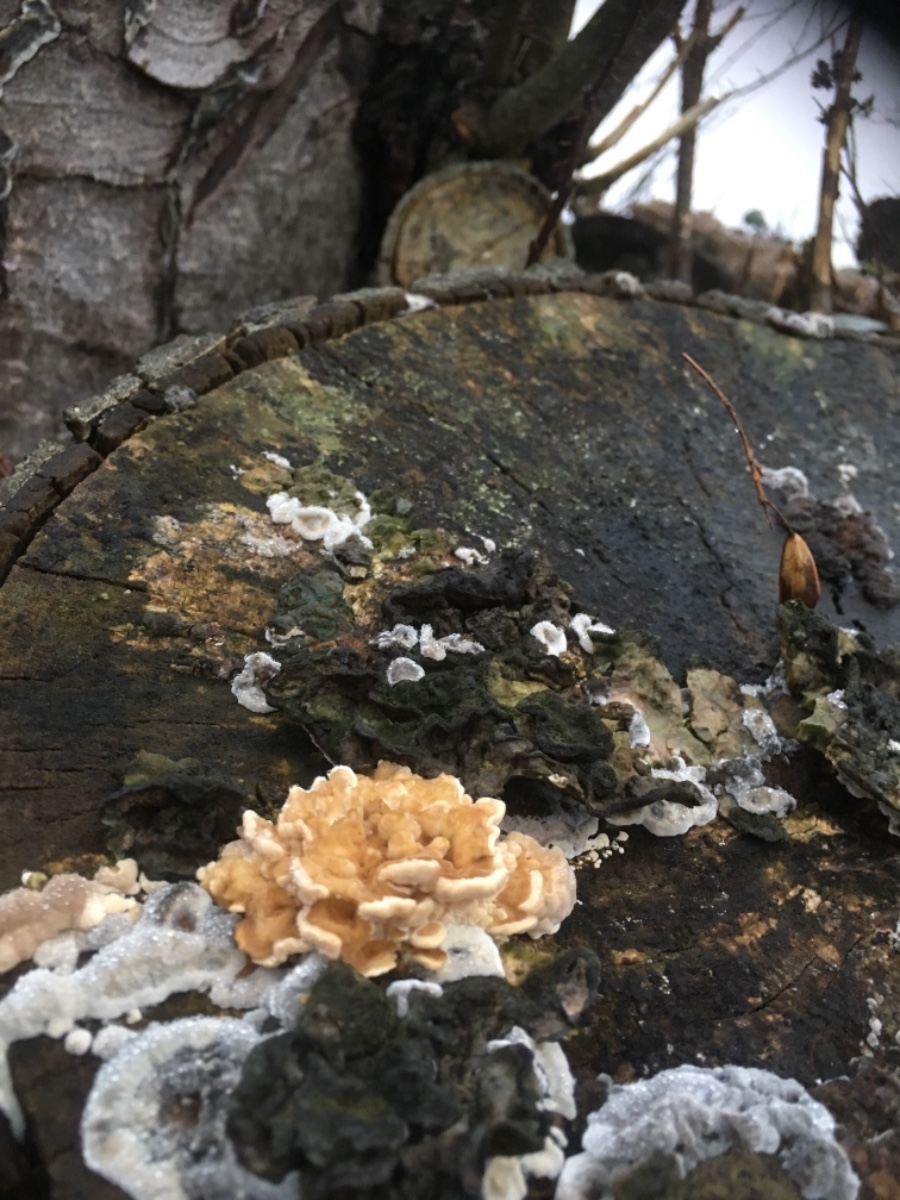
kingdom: Fungi
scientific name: Fungi
